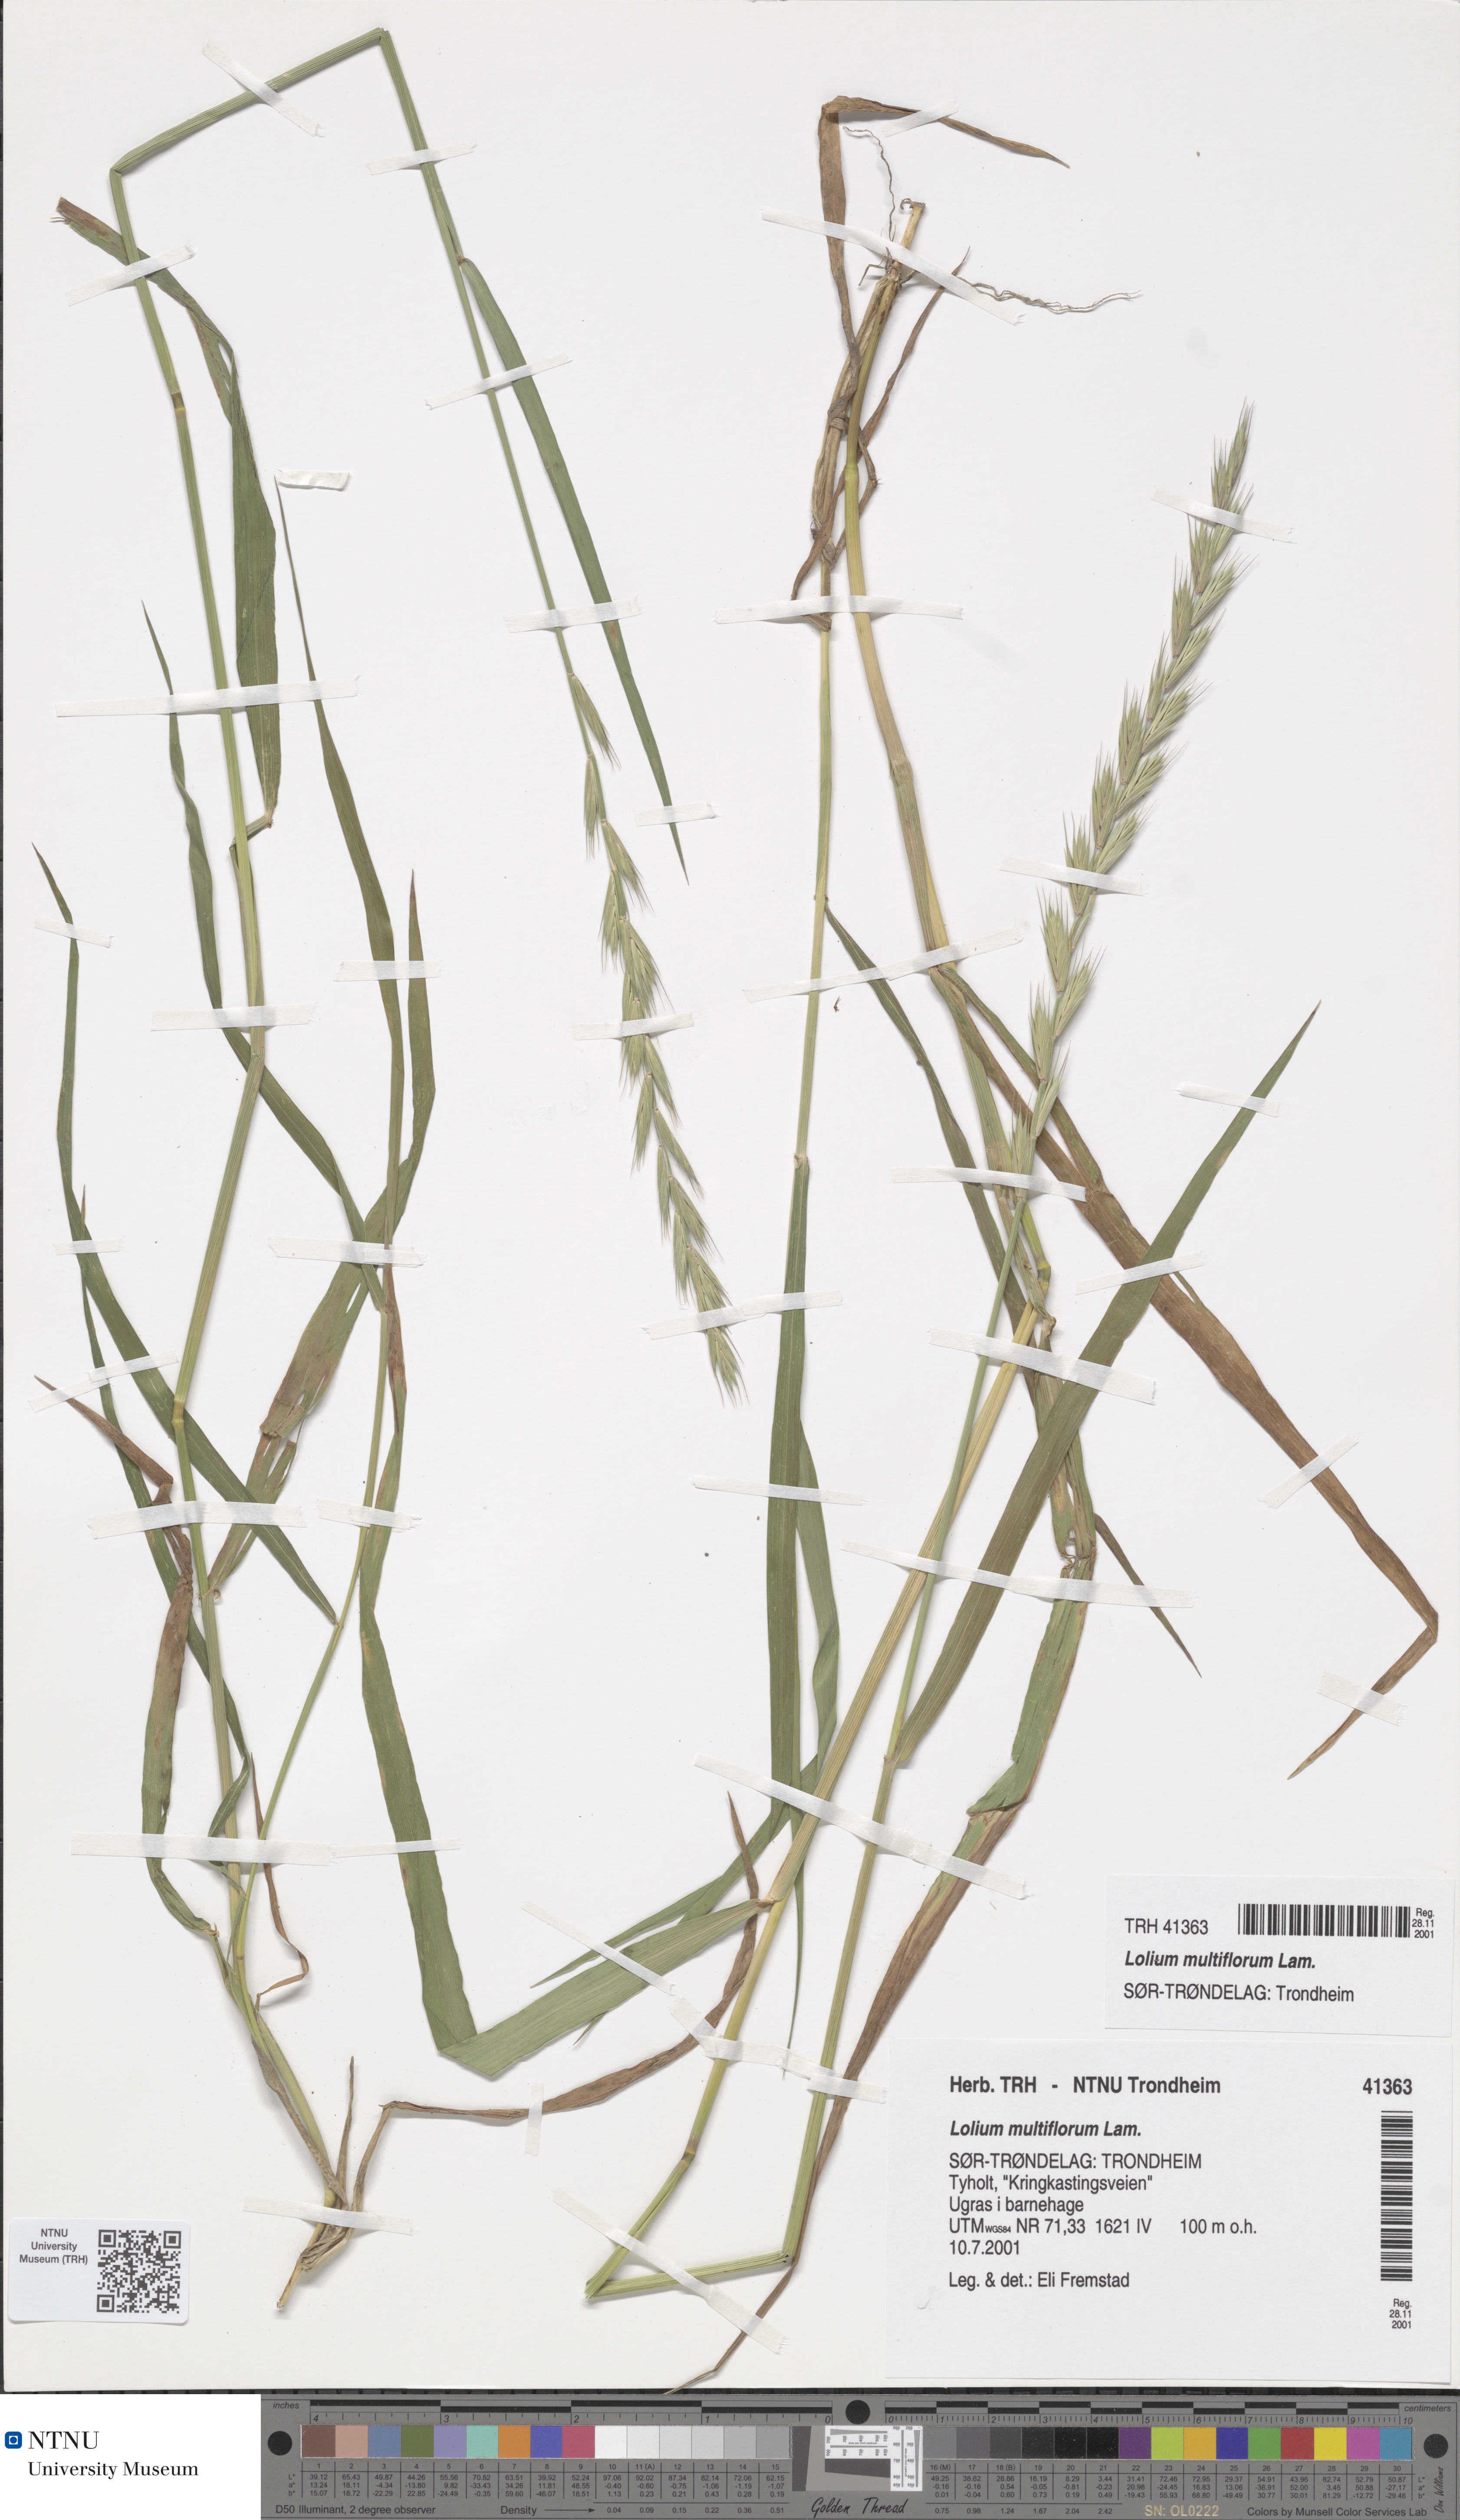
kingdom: Plantae
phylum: Tracheophyta
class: Liliopsida
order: Poales
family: Poaceae
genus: Lolium
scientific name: Lolium multiflorum
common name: Annual ryegrass
